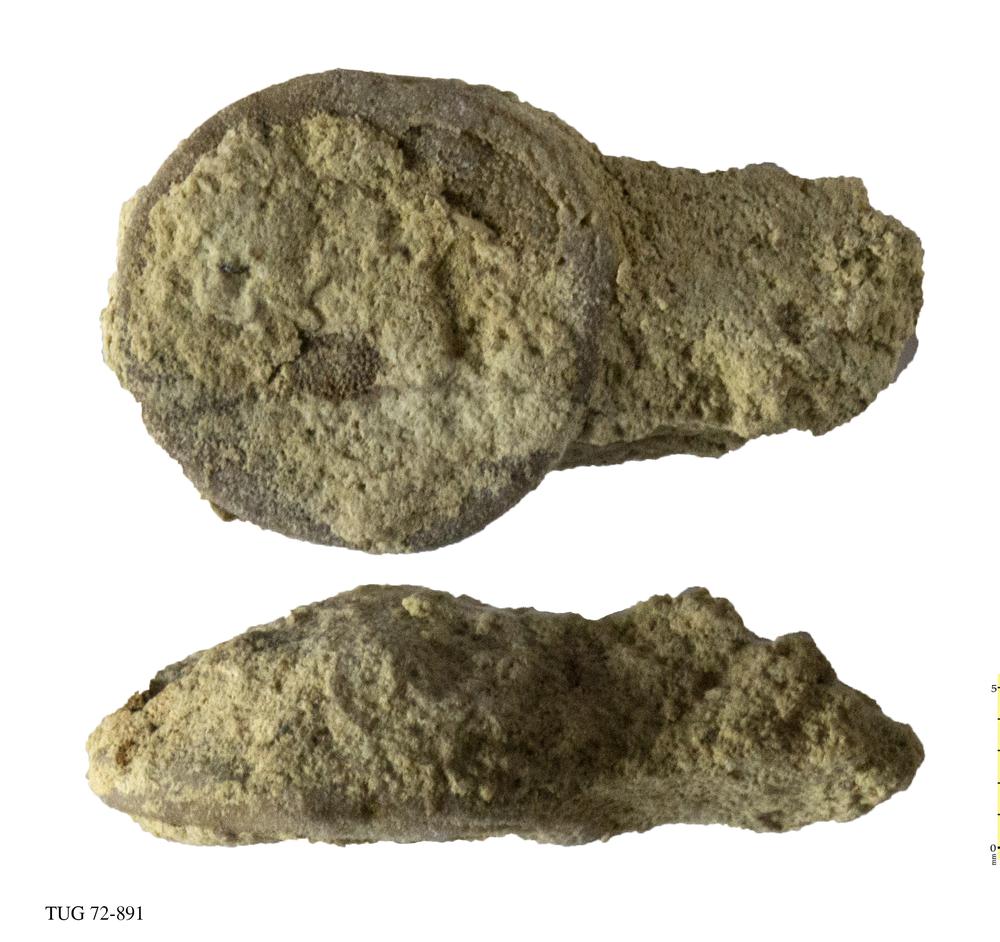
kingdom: Animalia
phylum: Bryozoa
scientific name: Bryozoa
